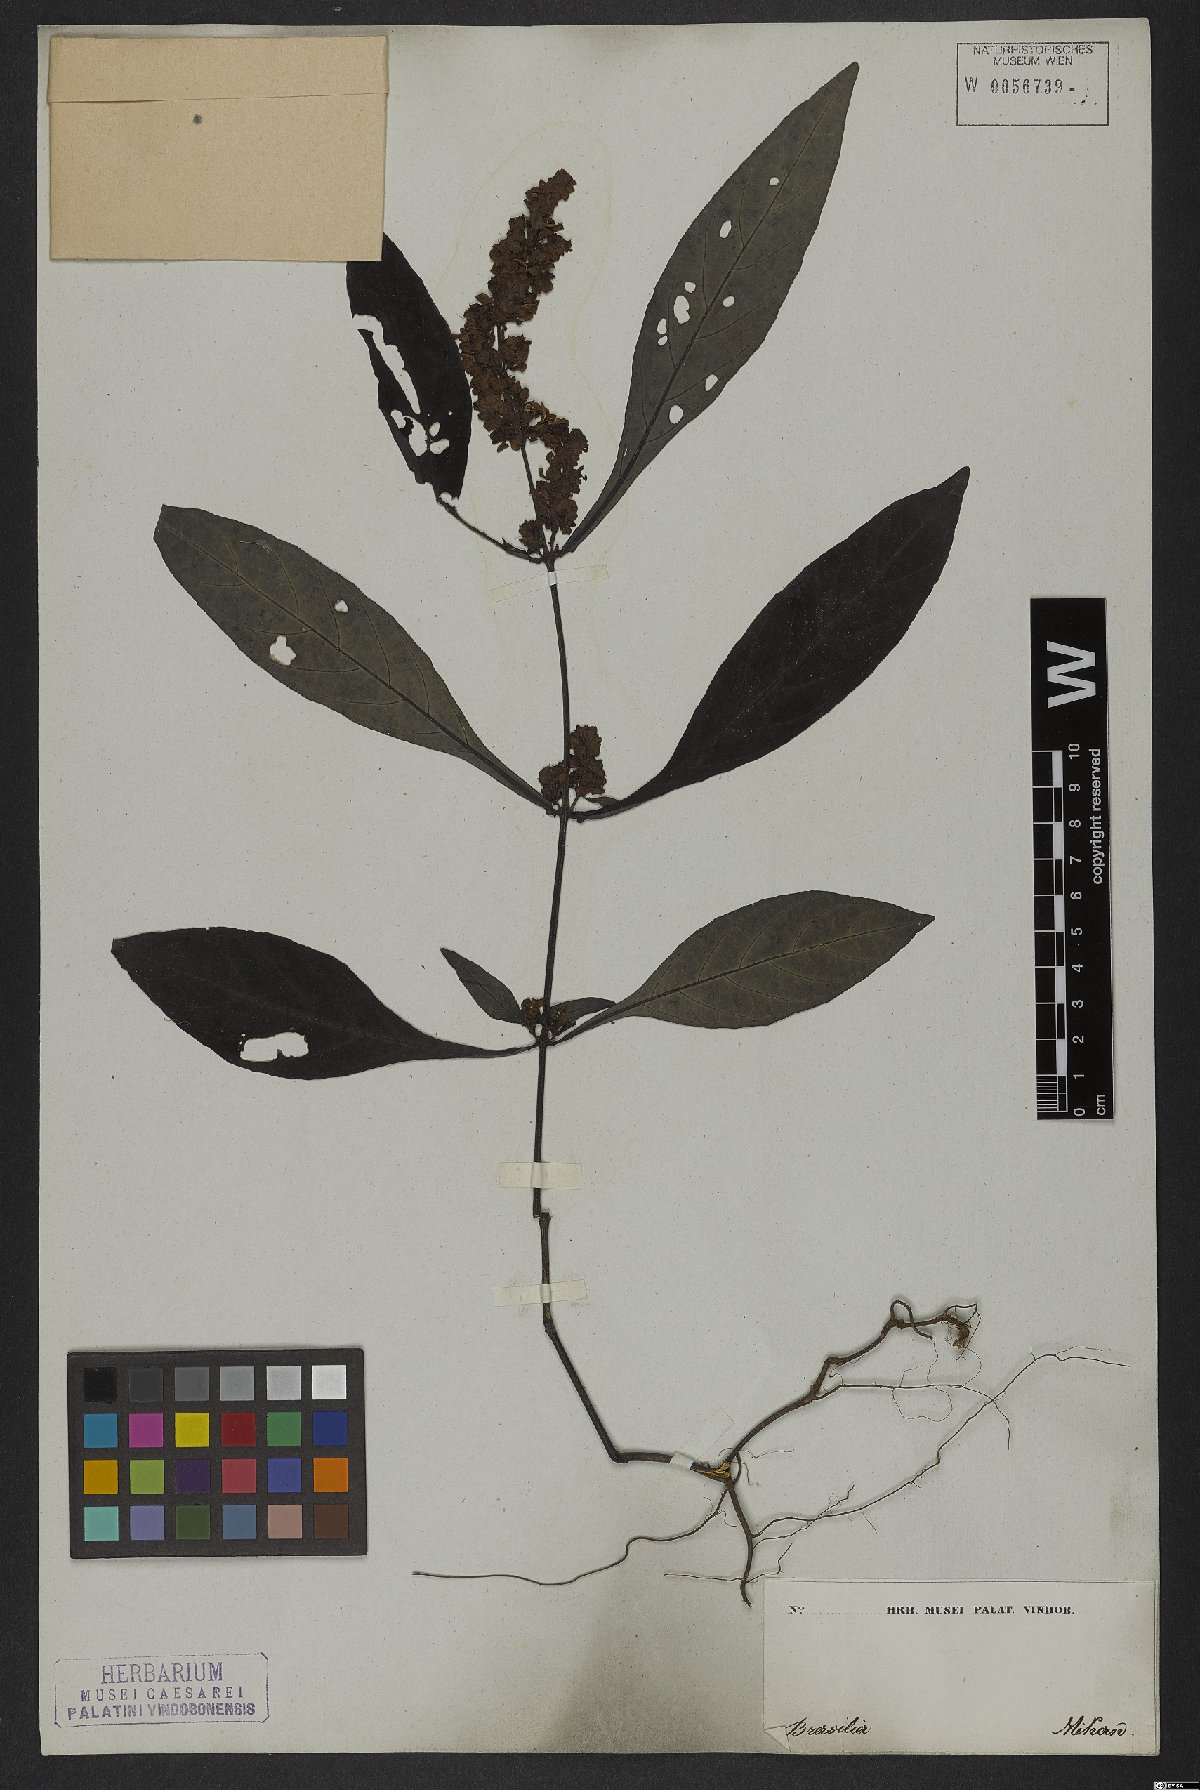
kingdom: Plantae
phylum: Tracheophyta
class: Magnoliopsida
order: Lamiales
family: Acanthaceae
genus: Dianthera
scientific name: Dianthera brasiliensis
